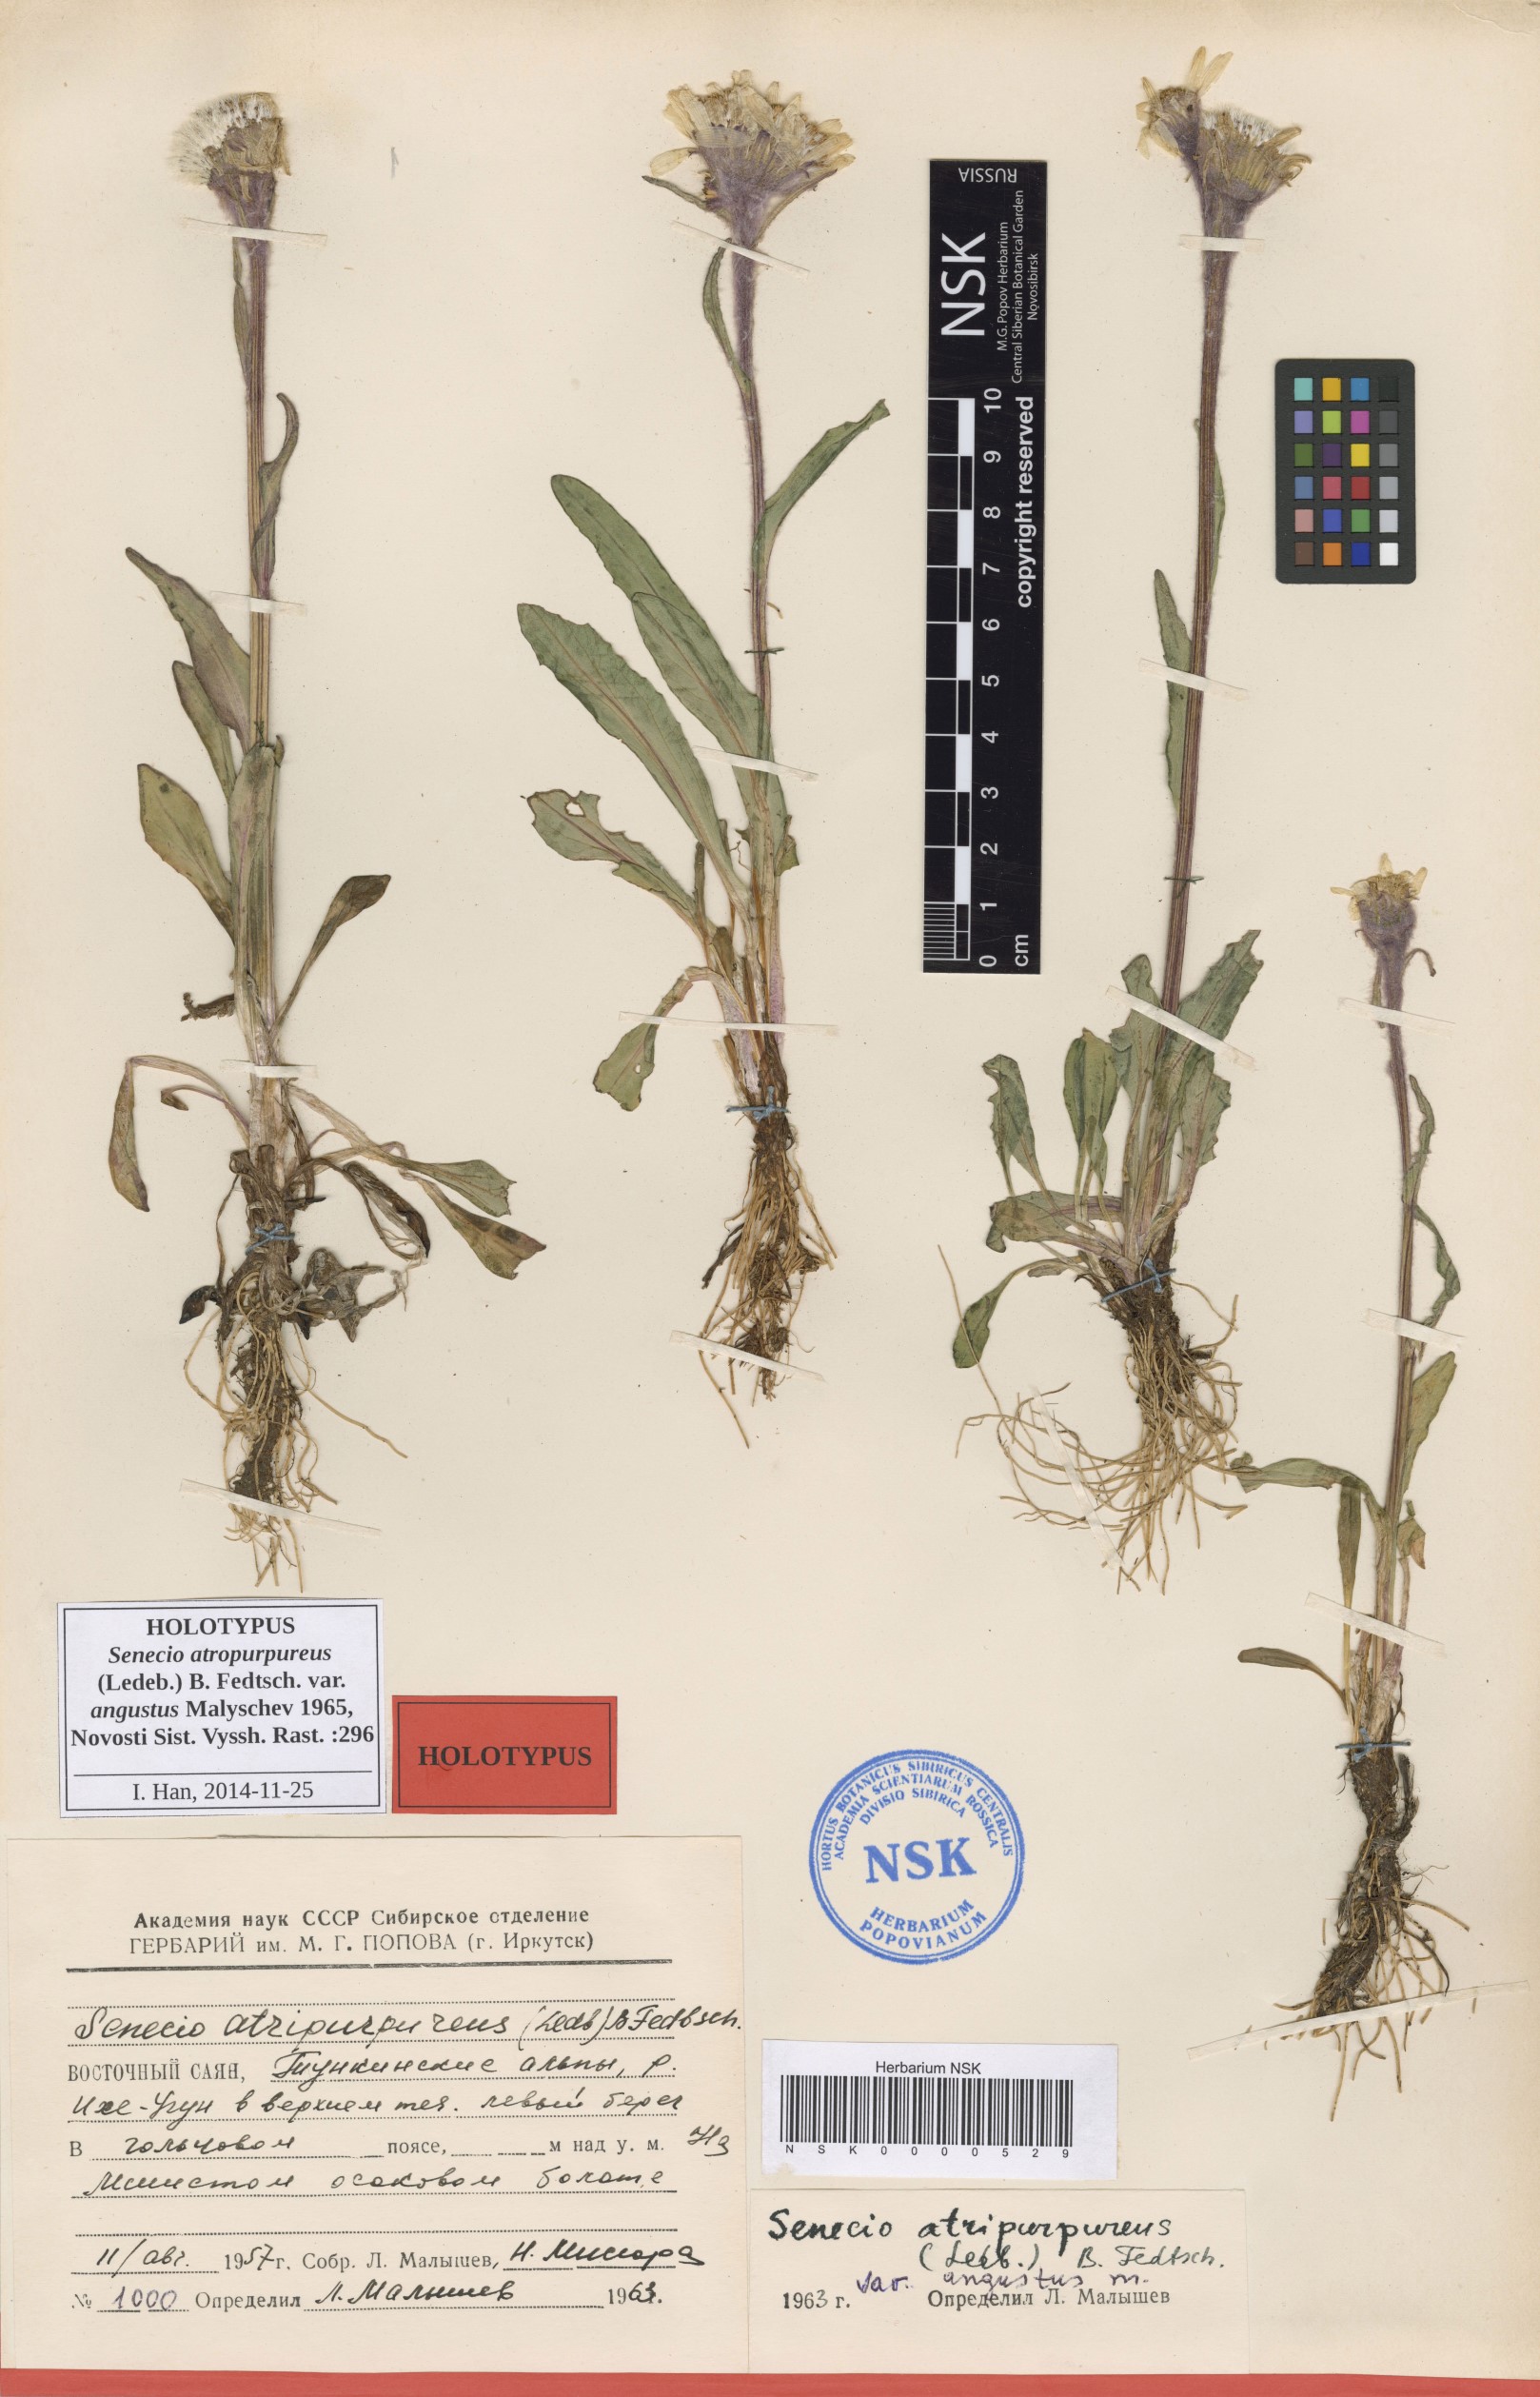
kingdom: Plantae
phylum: Tracheophyta
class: Magnoliopsida
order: Asterales
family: Asteraceae
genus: Tephroseris
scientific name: Tephroseris integrifolia
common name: Field fleawort
